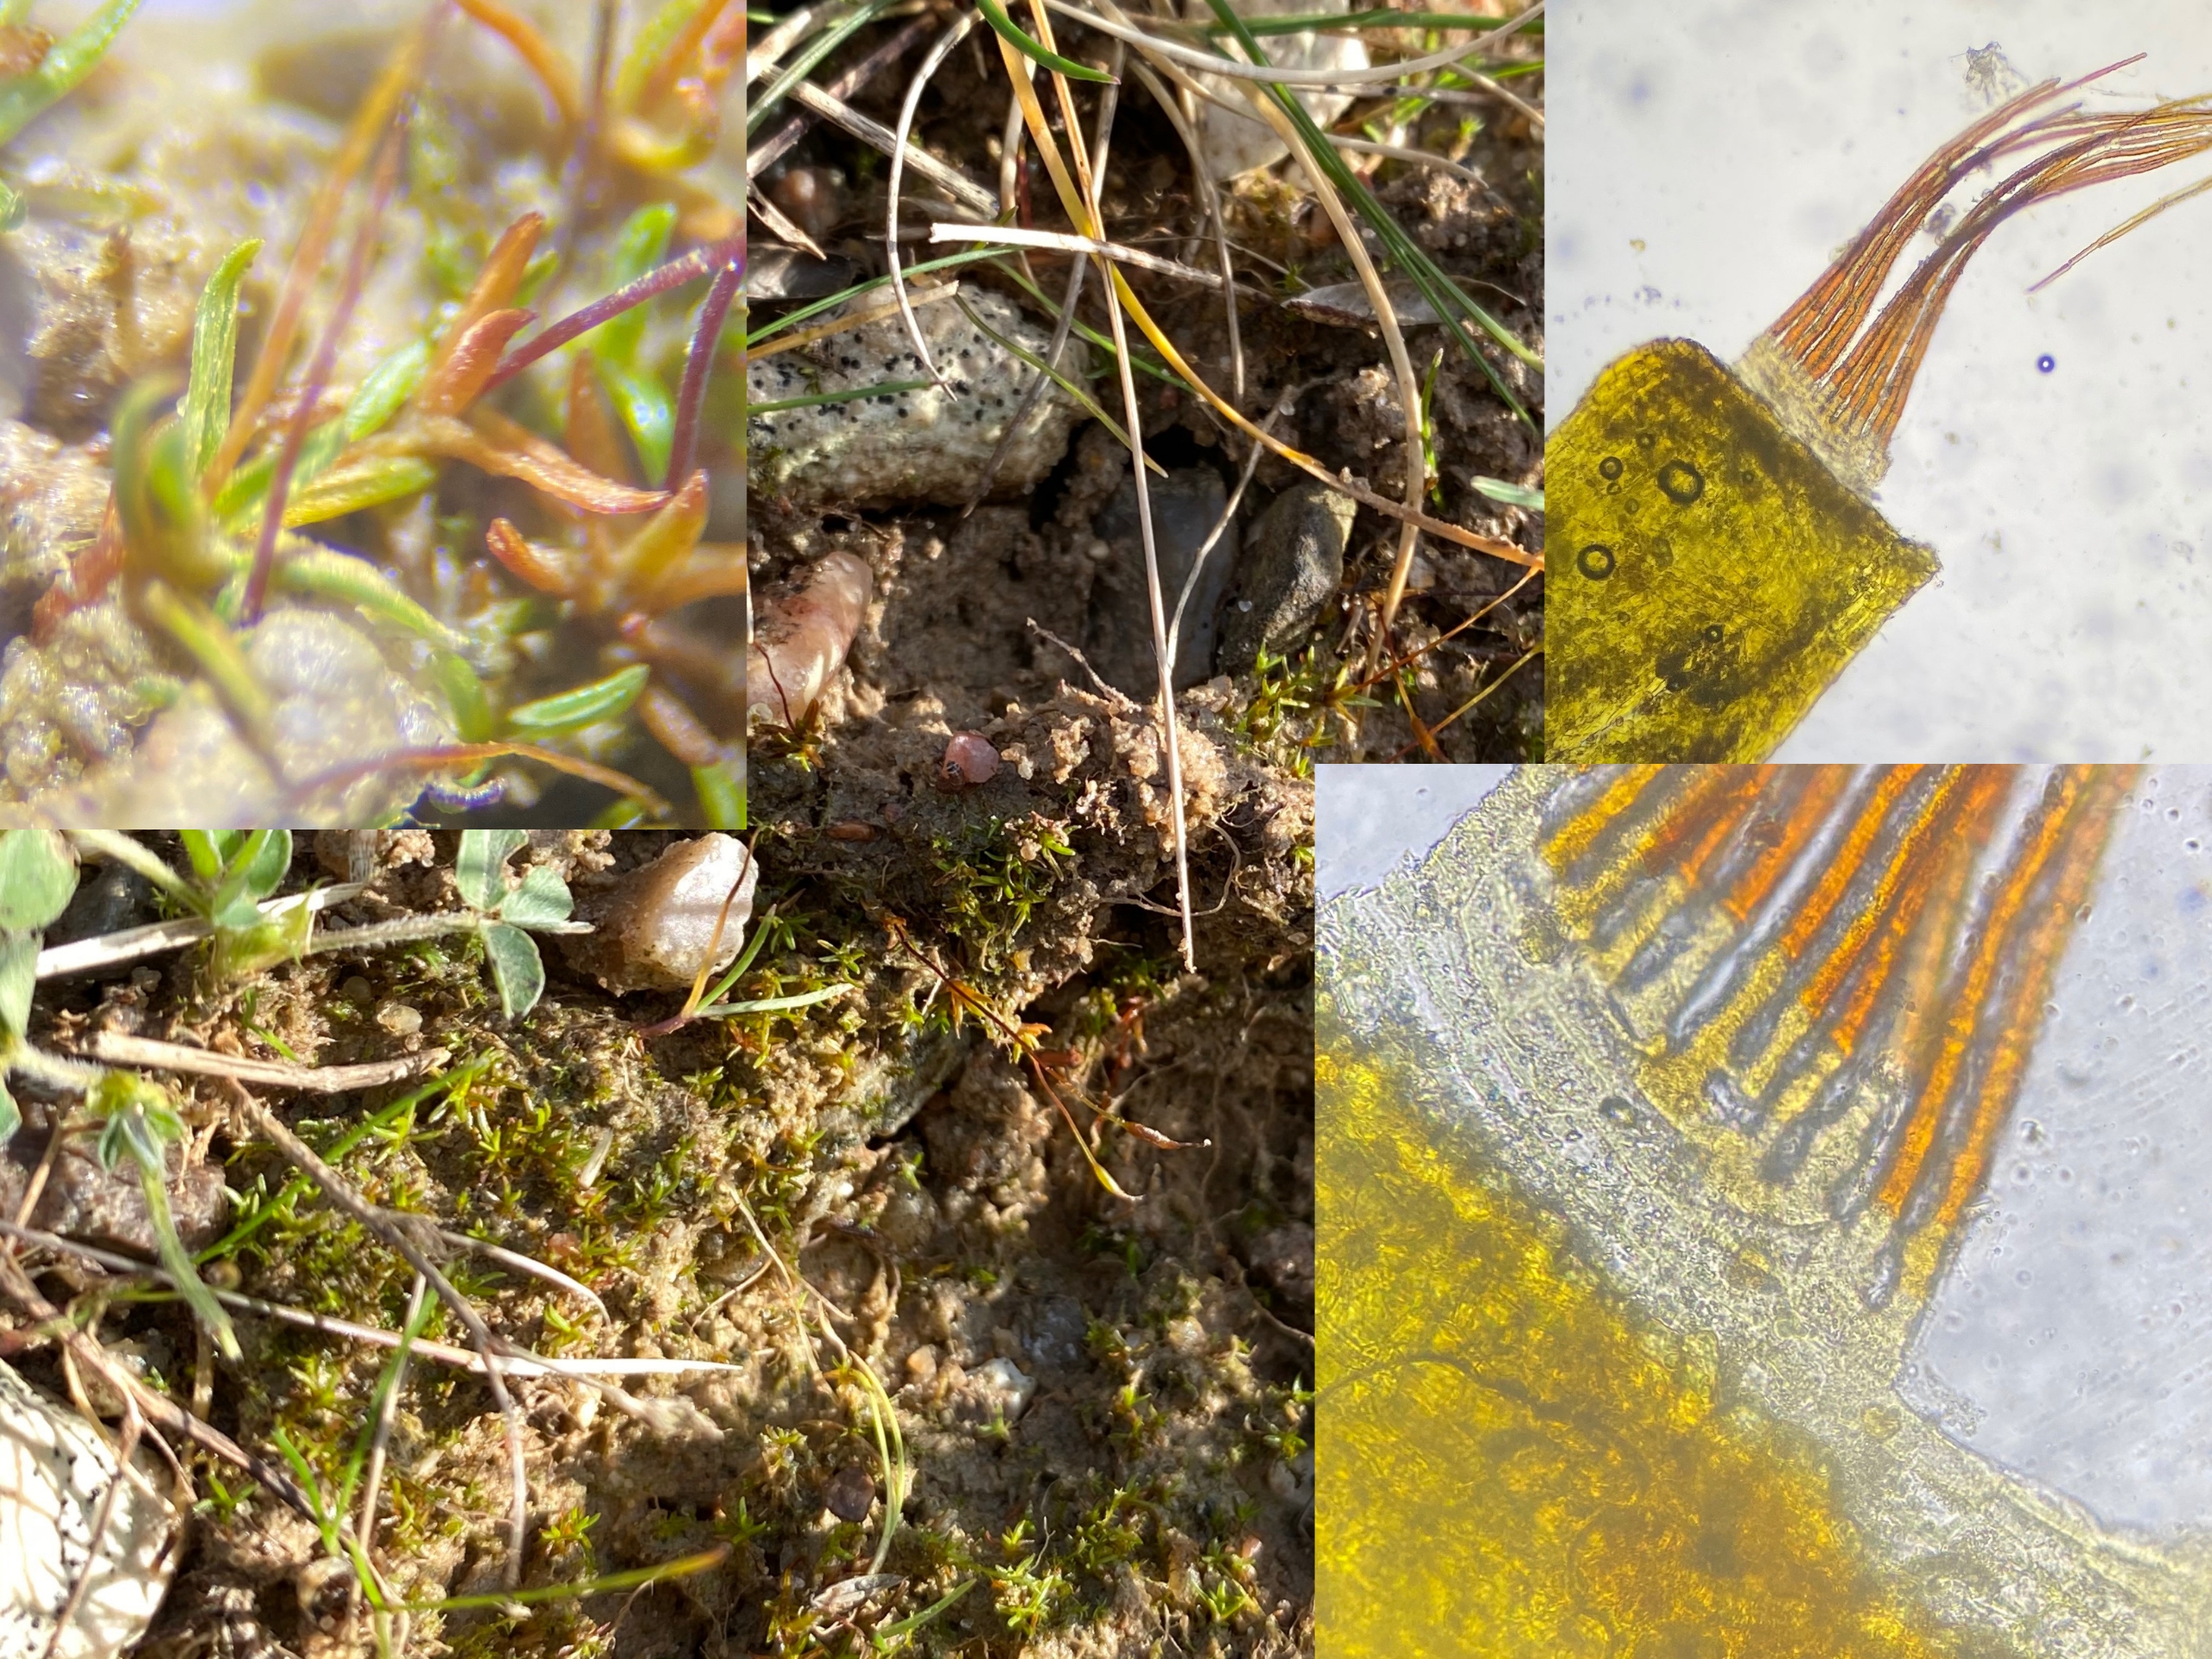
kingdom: Plantae
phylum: Bryophyta
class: Bryopsida
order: Pottiales
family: Pottiaceae
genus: Aloina
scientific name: Aloina ambigua
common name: Krog-tøffelmos
